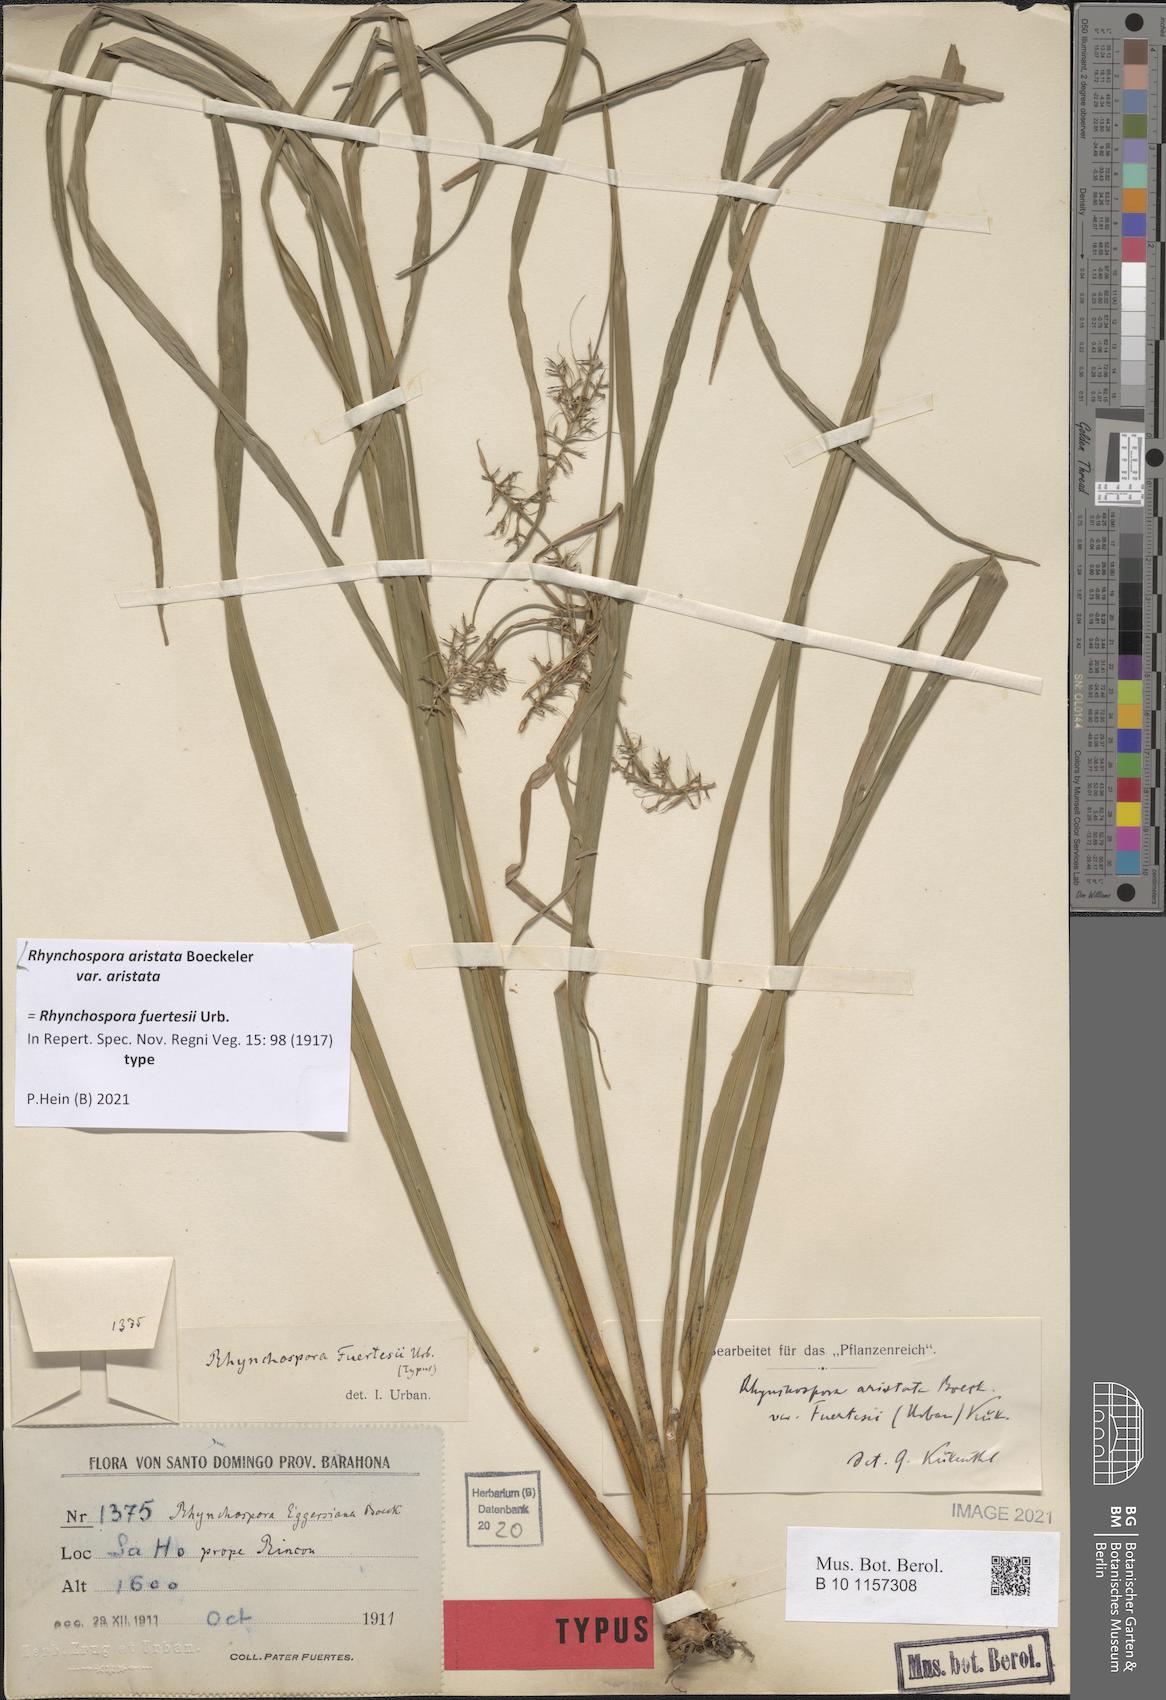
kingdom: Plantae
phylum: Tracheophyta
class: Liliopsida
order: Poales
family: Cyperaceae
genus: Rhynchospora
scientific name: Rhynchospora aristata
